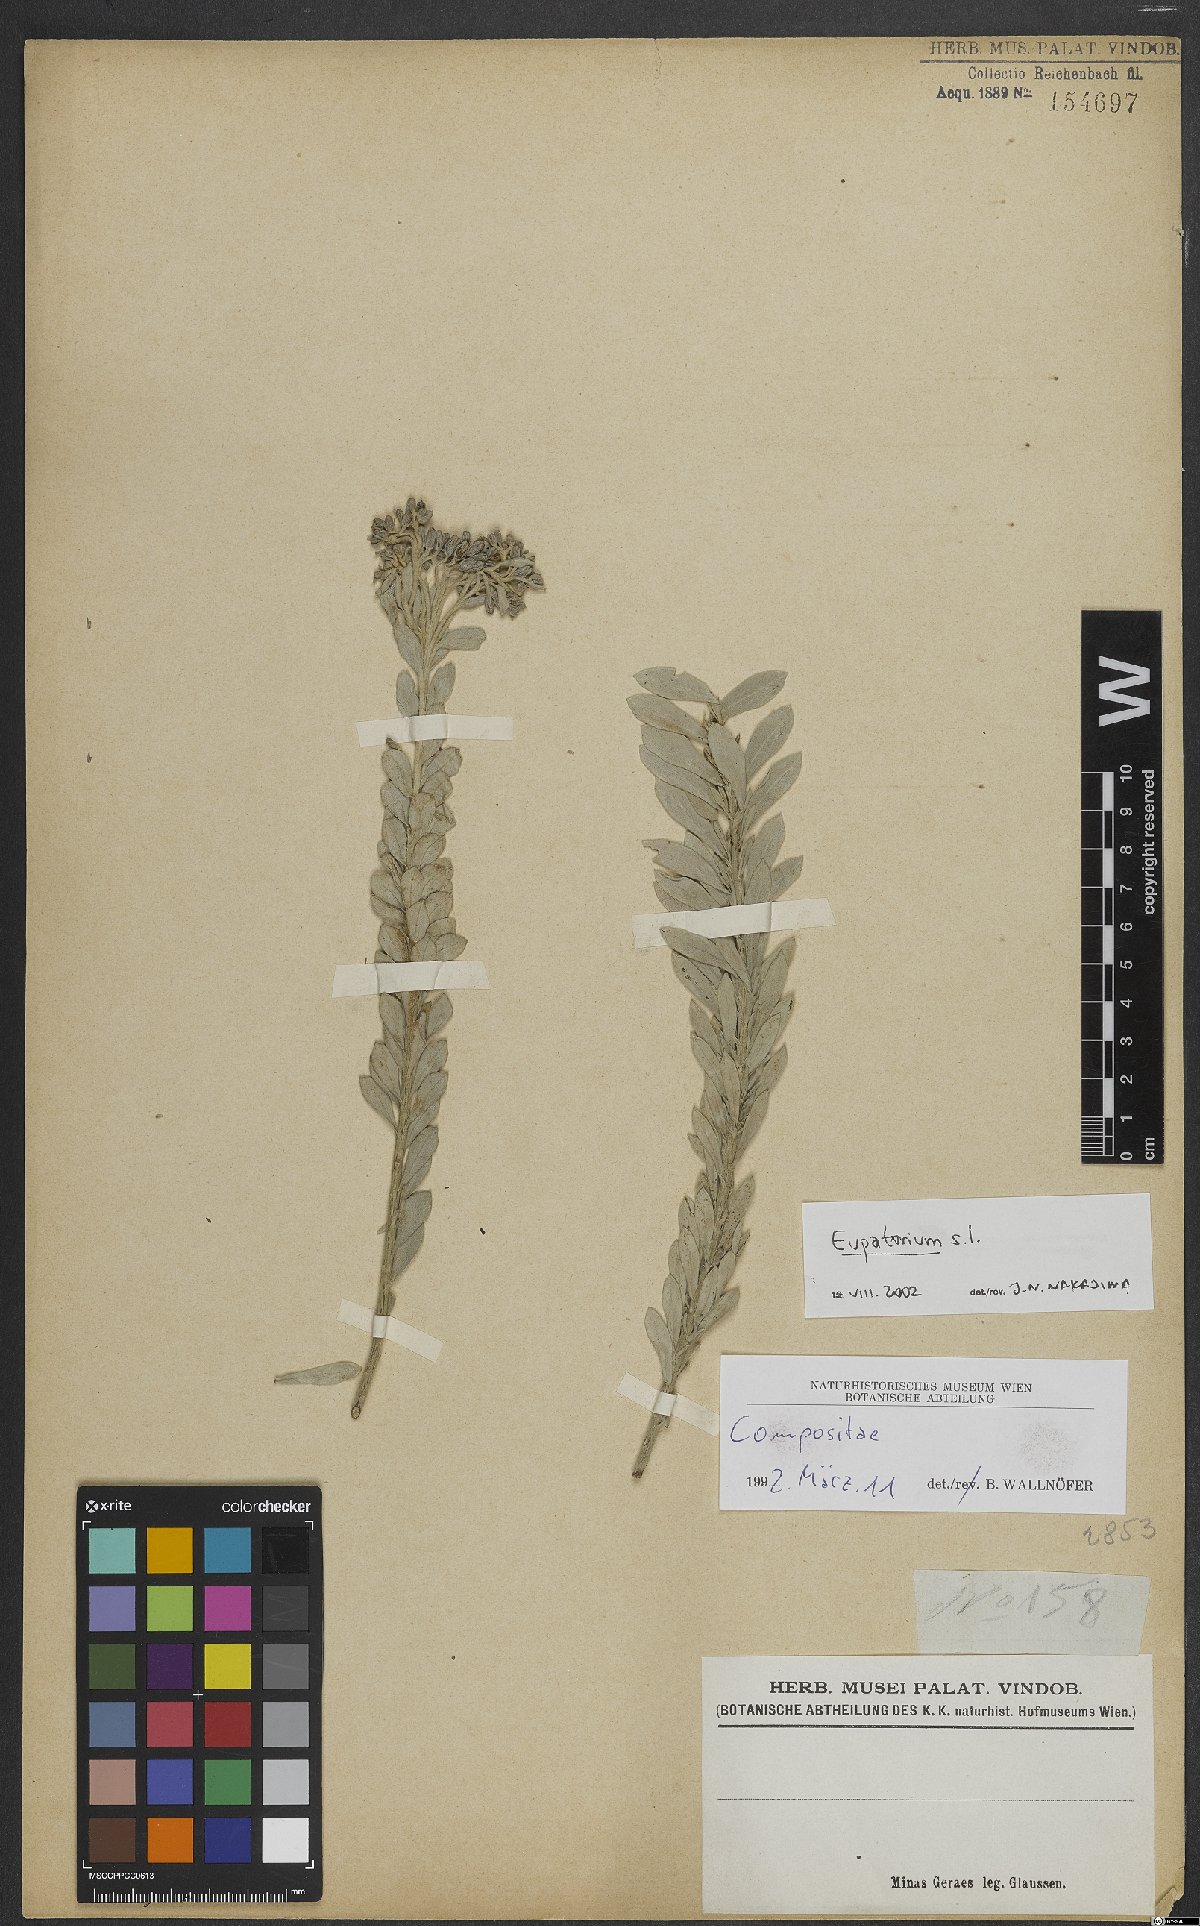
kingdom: Plantae
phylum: Tracheophyta
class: Magnoliopsida
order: Asterales
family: Asteraceae
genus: Eupatorium
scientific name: Eupatorium
